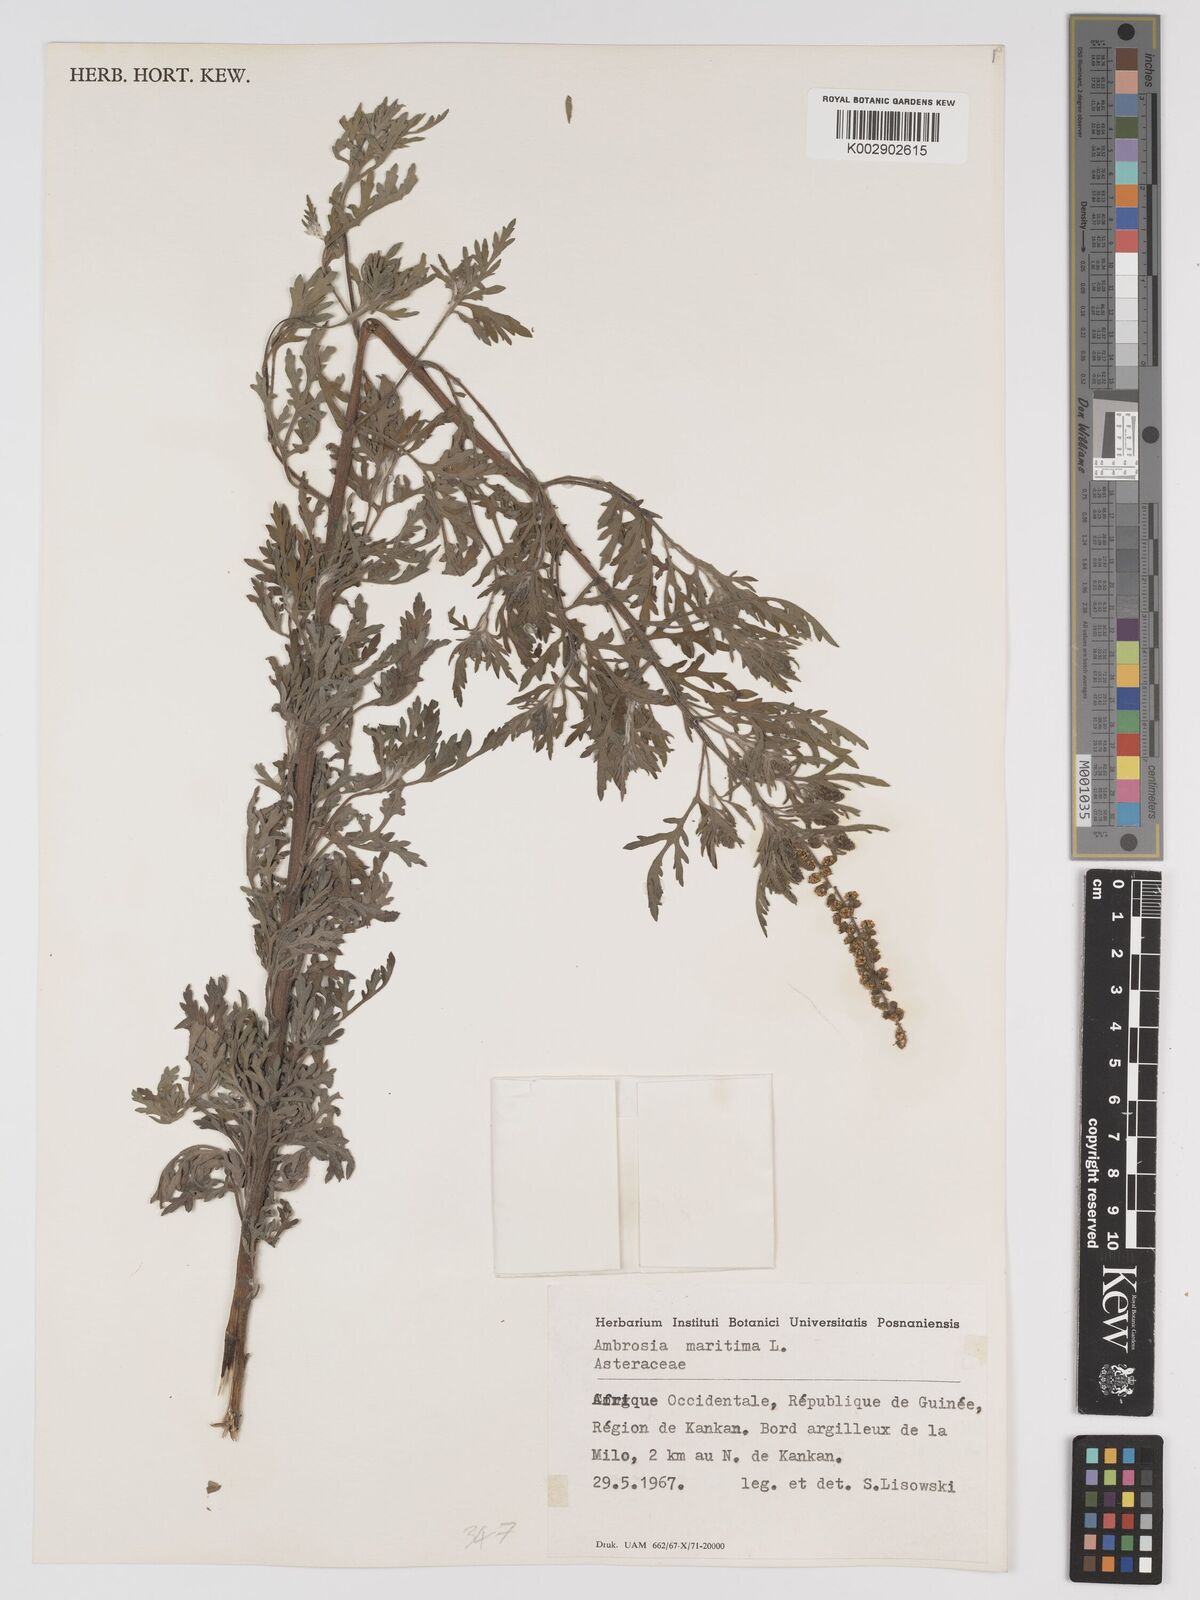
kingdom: Plantae
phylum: Tracheophyta
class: Magnoliopsida
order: Asterales
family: Asteraceae
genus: Ambrosia
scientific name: Ambrosia maritima
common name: Sea ambrosia
